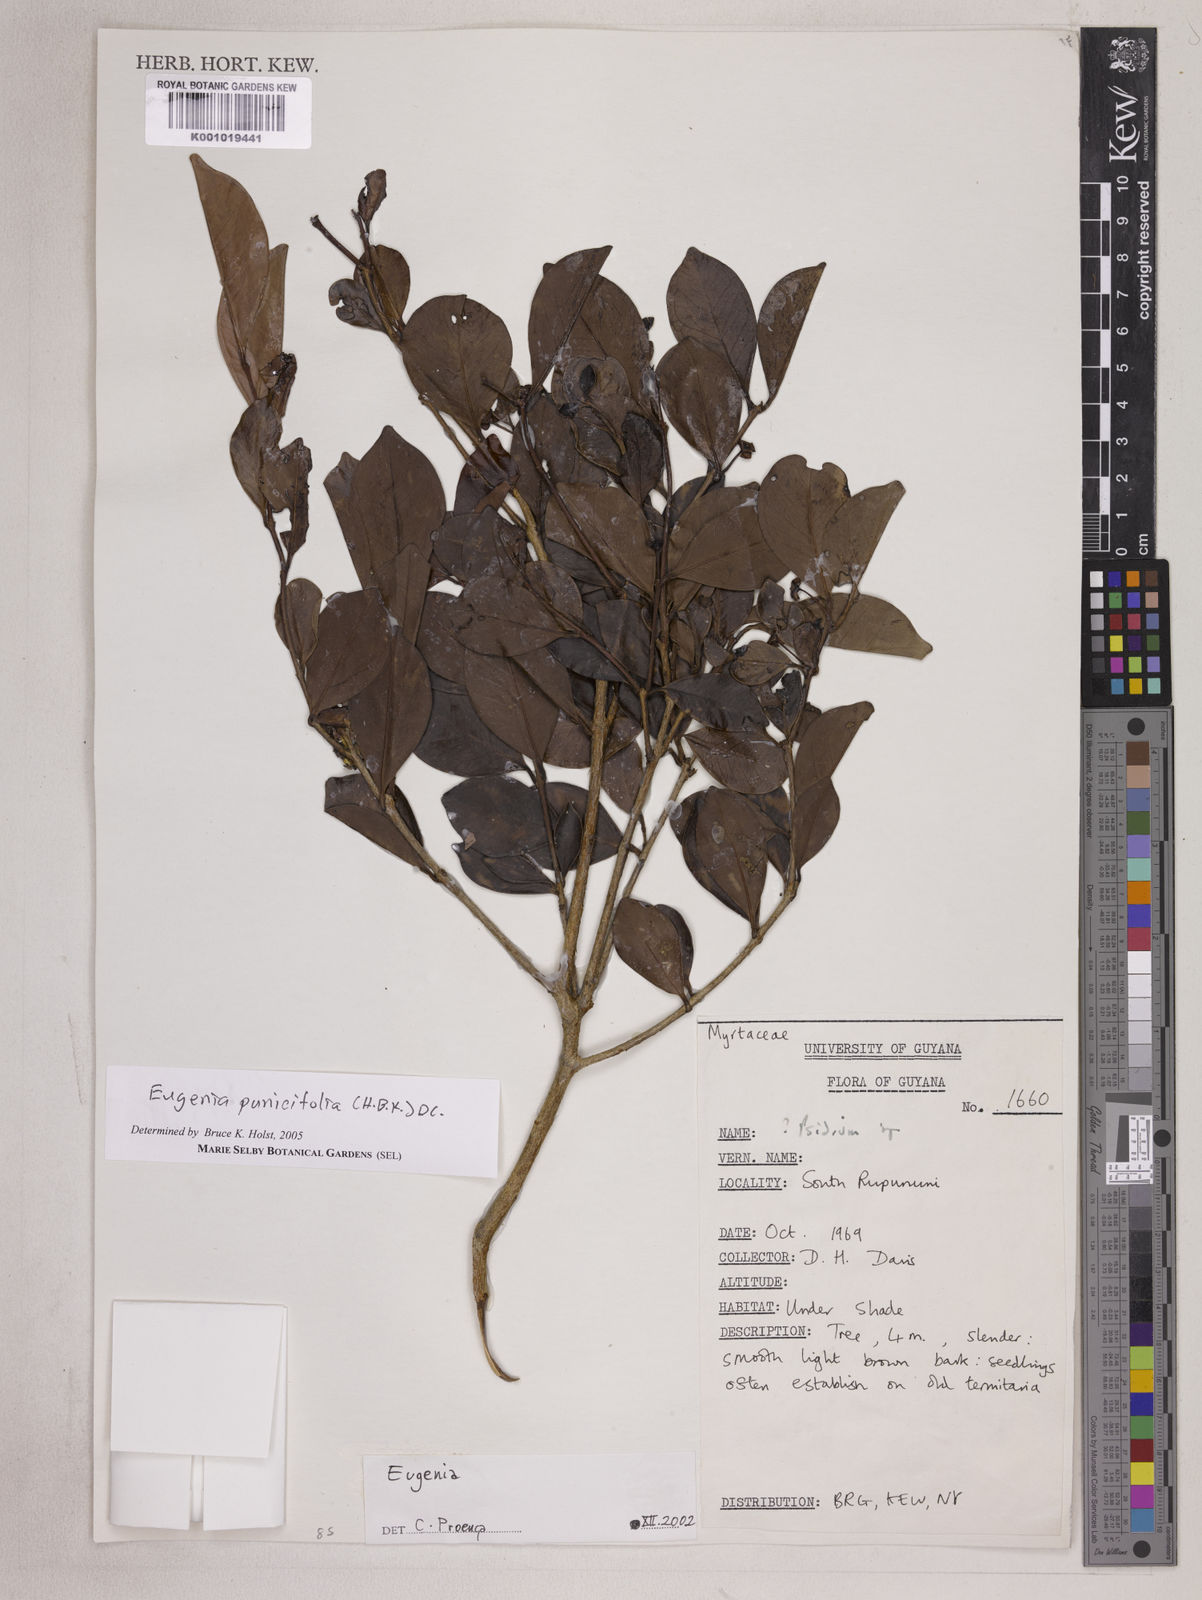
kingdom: Plantae
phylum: Tracheophyta
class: Magnoliopsida
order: Myrtales
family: Myrtaceae
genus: Eugenia
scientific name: Eugenia punicifolia
